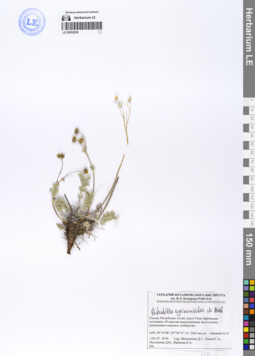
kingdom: Plantae
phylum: Tracheophyta
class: Magnoliopsida
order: Rosales
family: Rosaceae
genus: Potentilla
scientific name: Potentilla agrimonioides
